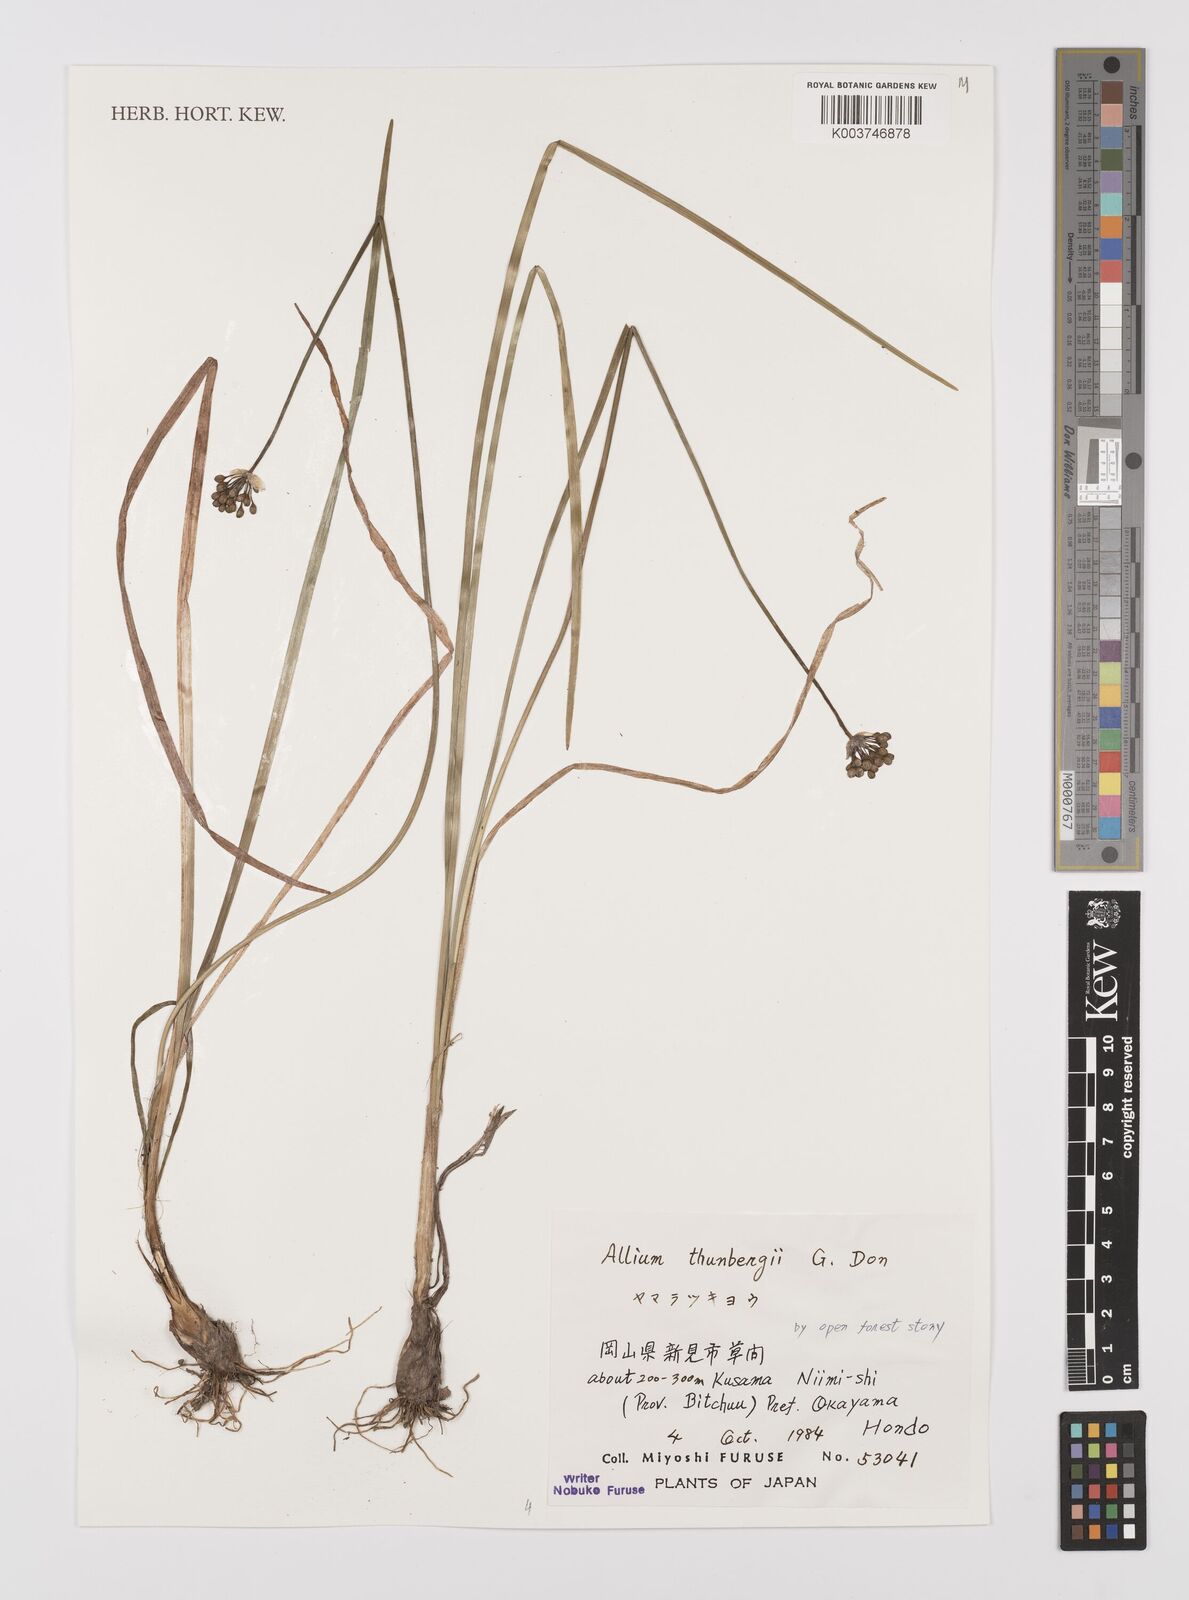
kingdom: Plantae
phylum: Tracheophyta
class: Liliopsida
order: Asparagales
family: Amaryllidaceae
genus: Allium
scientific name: Allium thunbergii
